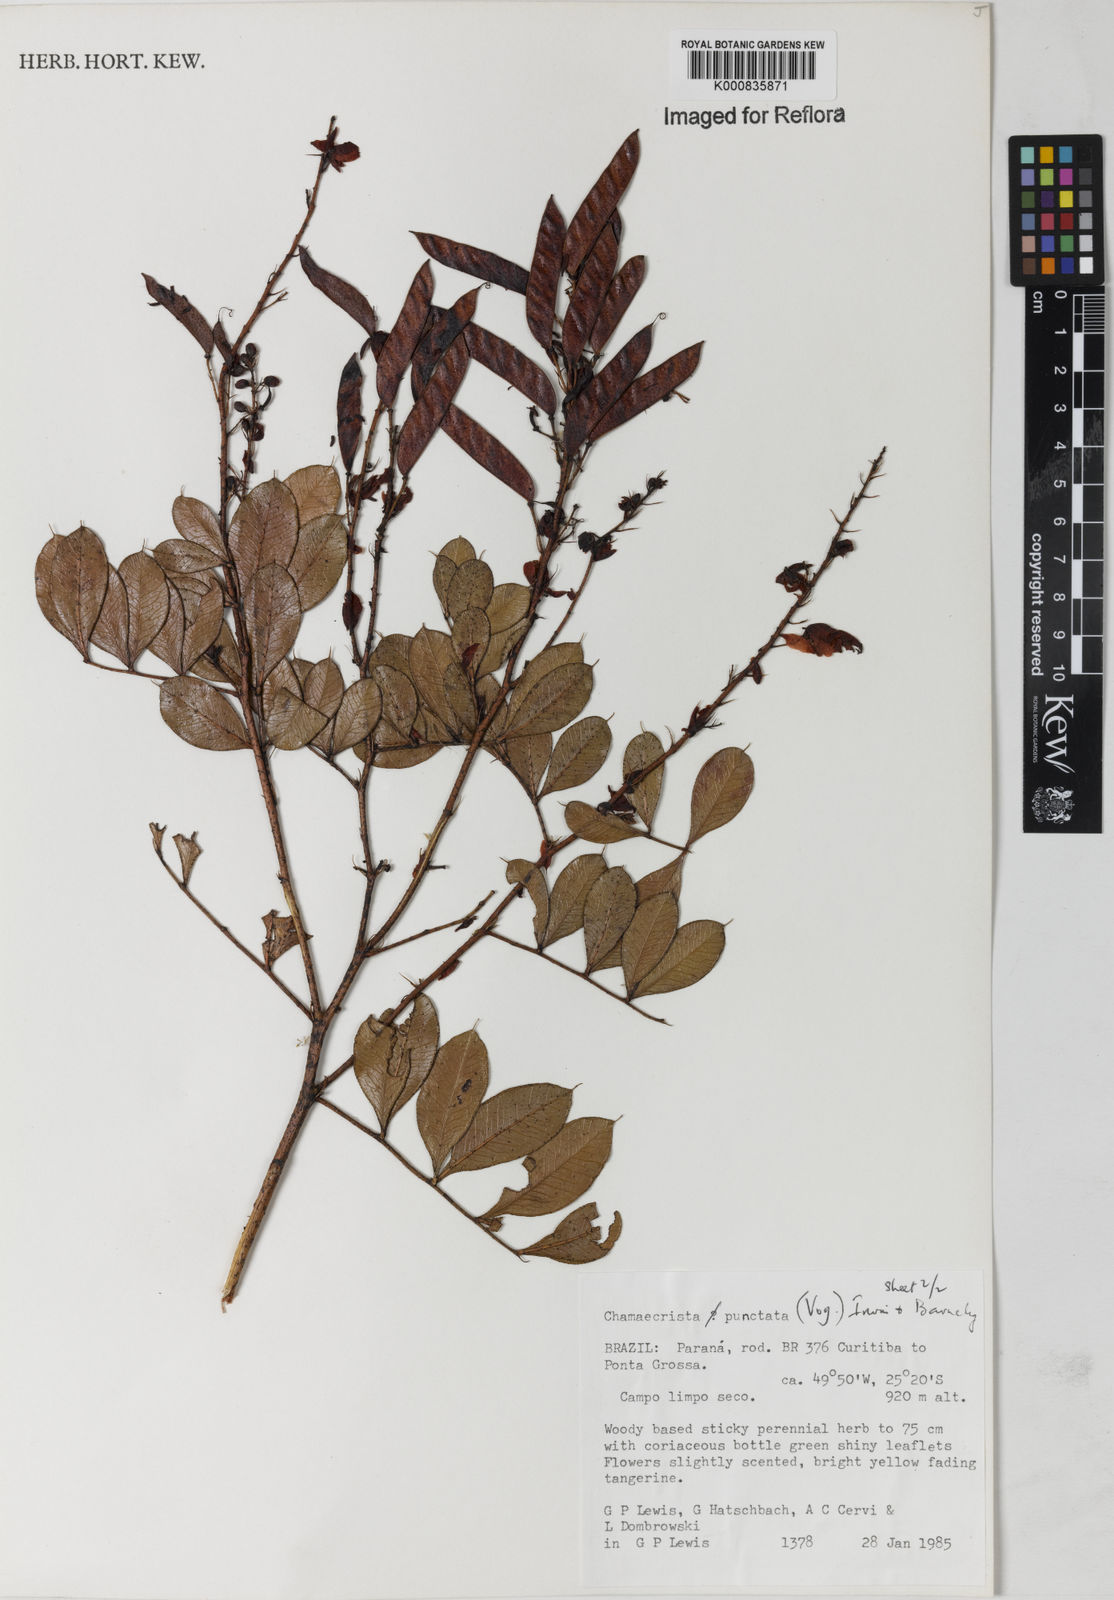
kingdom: Plantae
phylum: Tracheophyta
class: Magnoliopsida
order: Fabales
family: Fabaceae
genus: Chamaecrista
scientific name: Chamaecrista punctata
